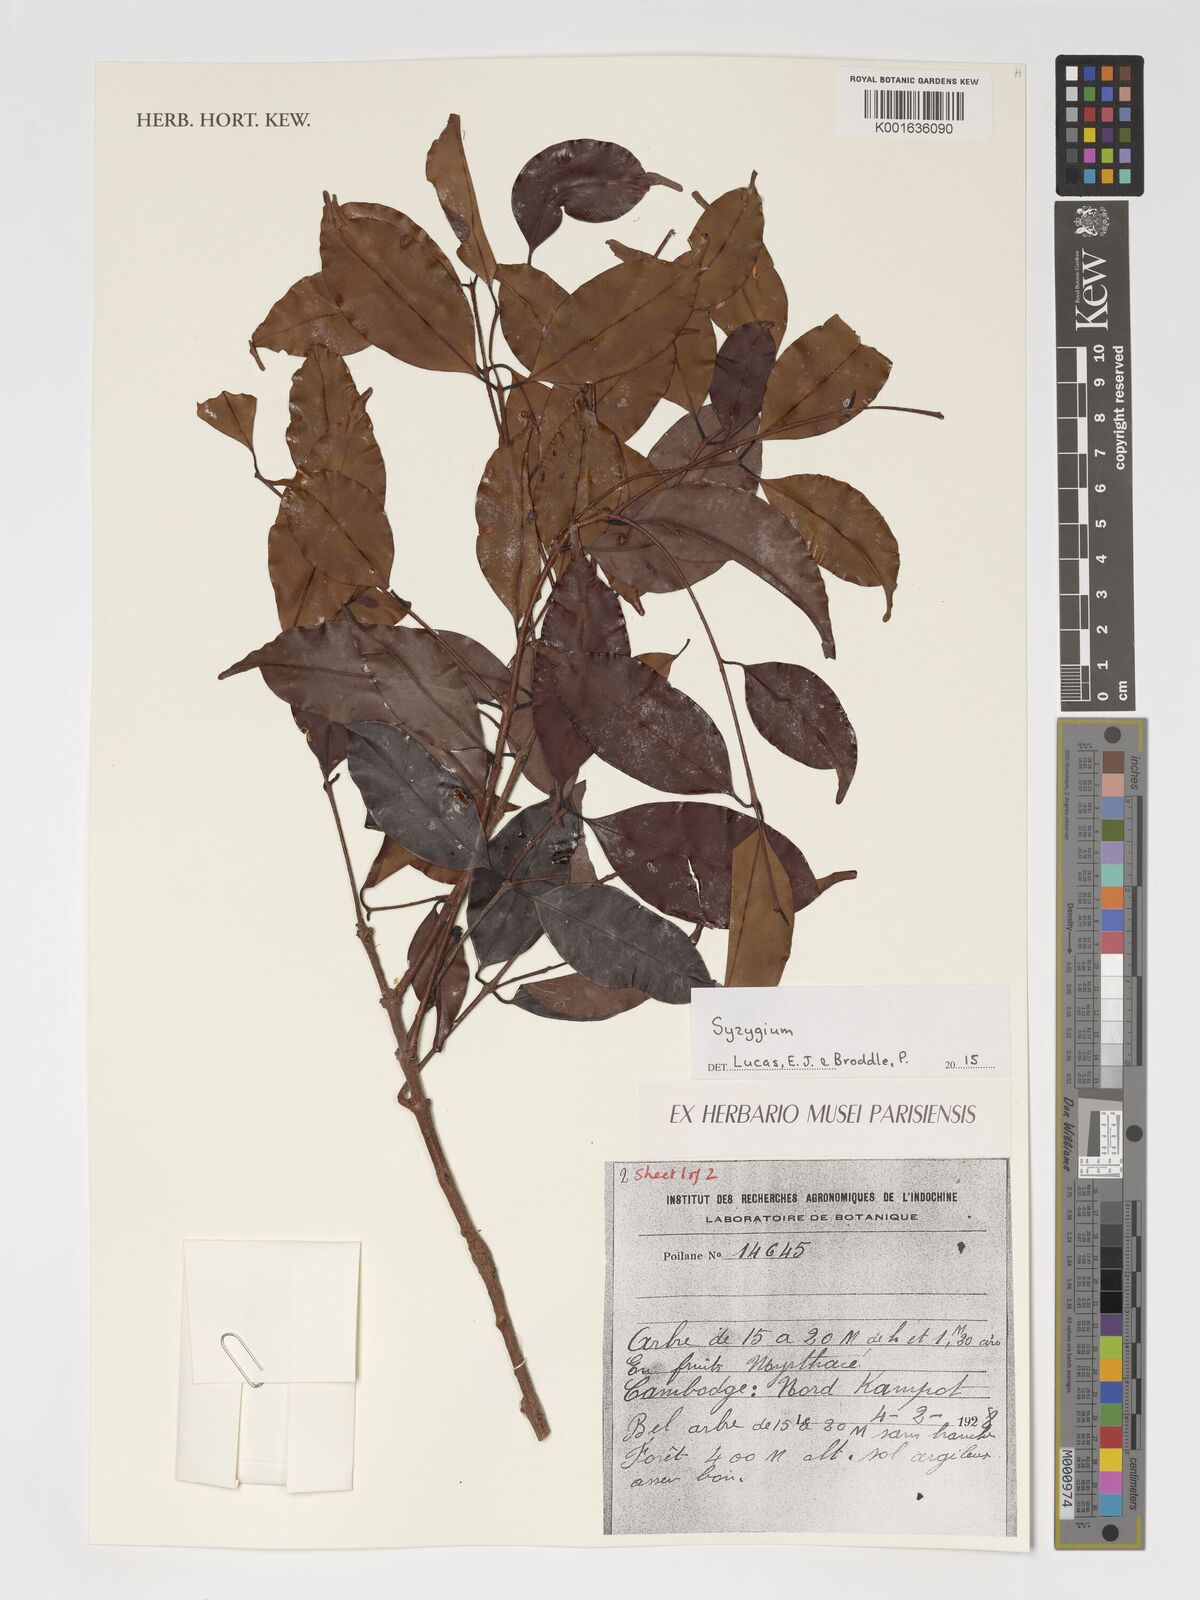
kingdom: Plantae
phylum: Tracheophyta
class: Magnoliopsida
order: Myrtales
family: Myrtaceae
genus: Syzygium
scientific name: Syzygium
